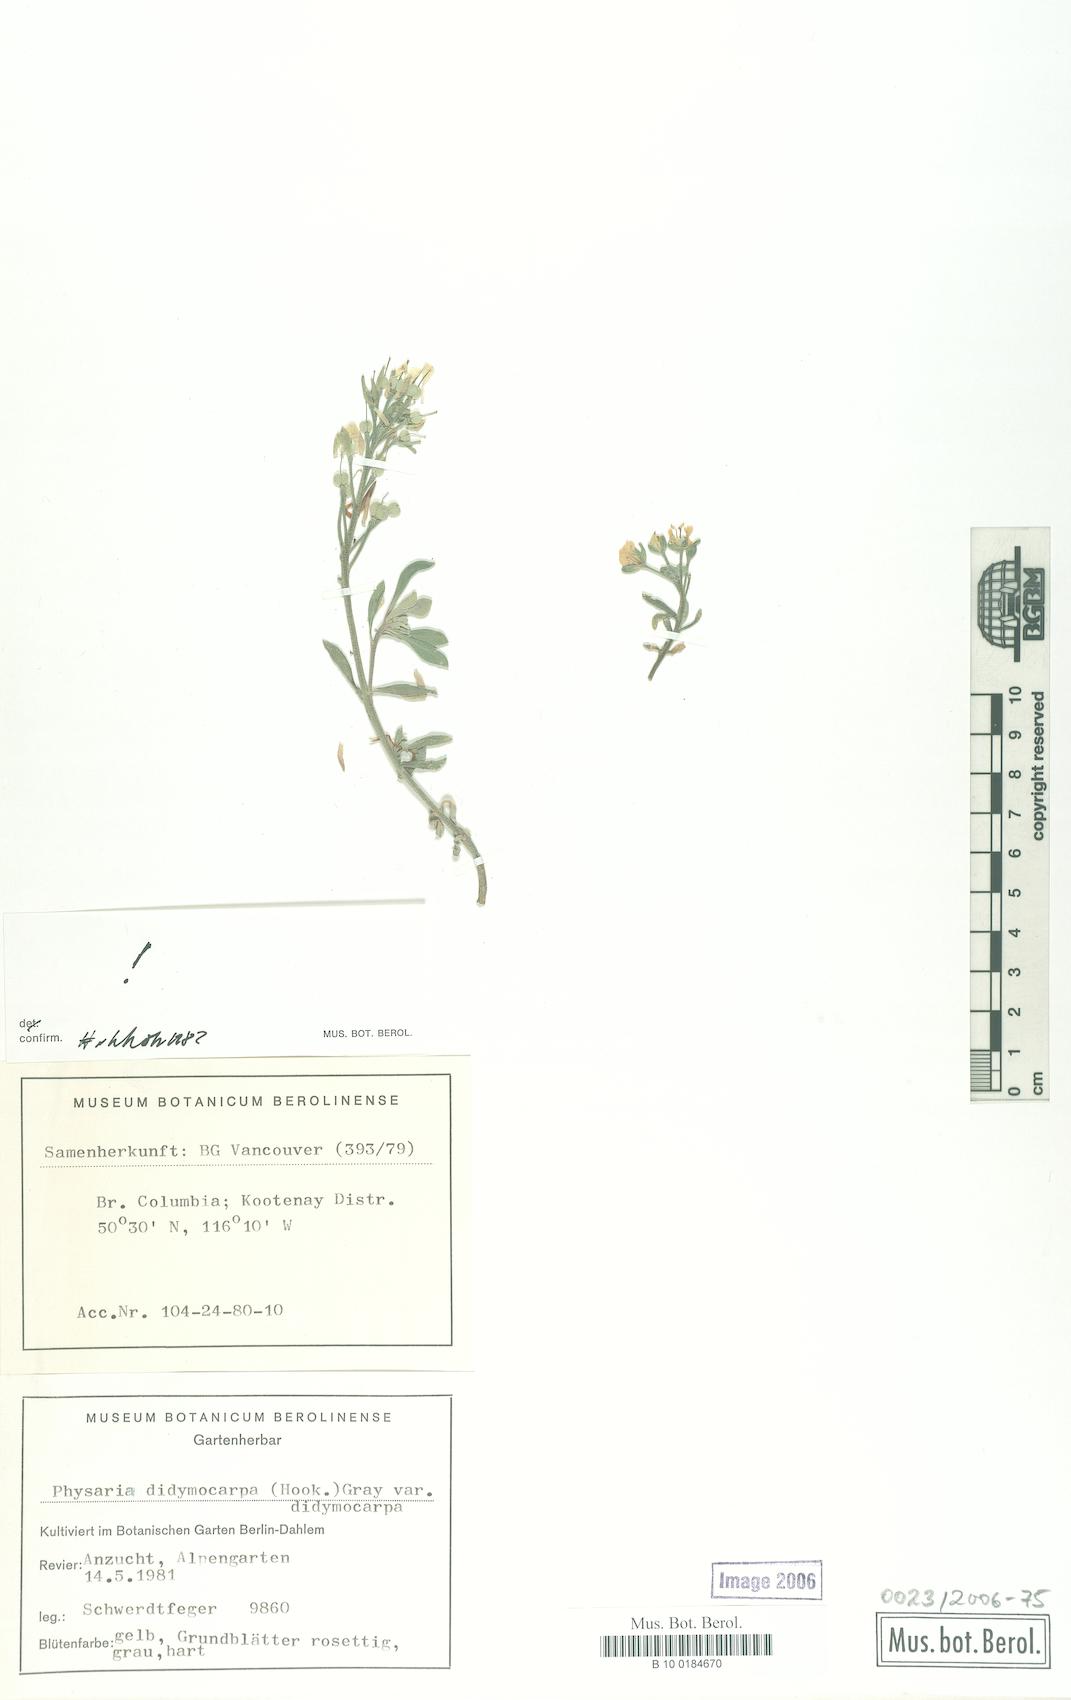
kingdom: Plantae
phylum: Tracheophyta
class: Magnoliopsida
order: Brassicales
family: Brassicaceae
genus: Physaria
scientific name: Physaria didymocarpa
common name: Common twinpod
